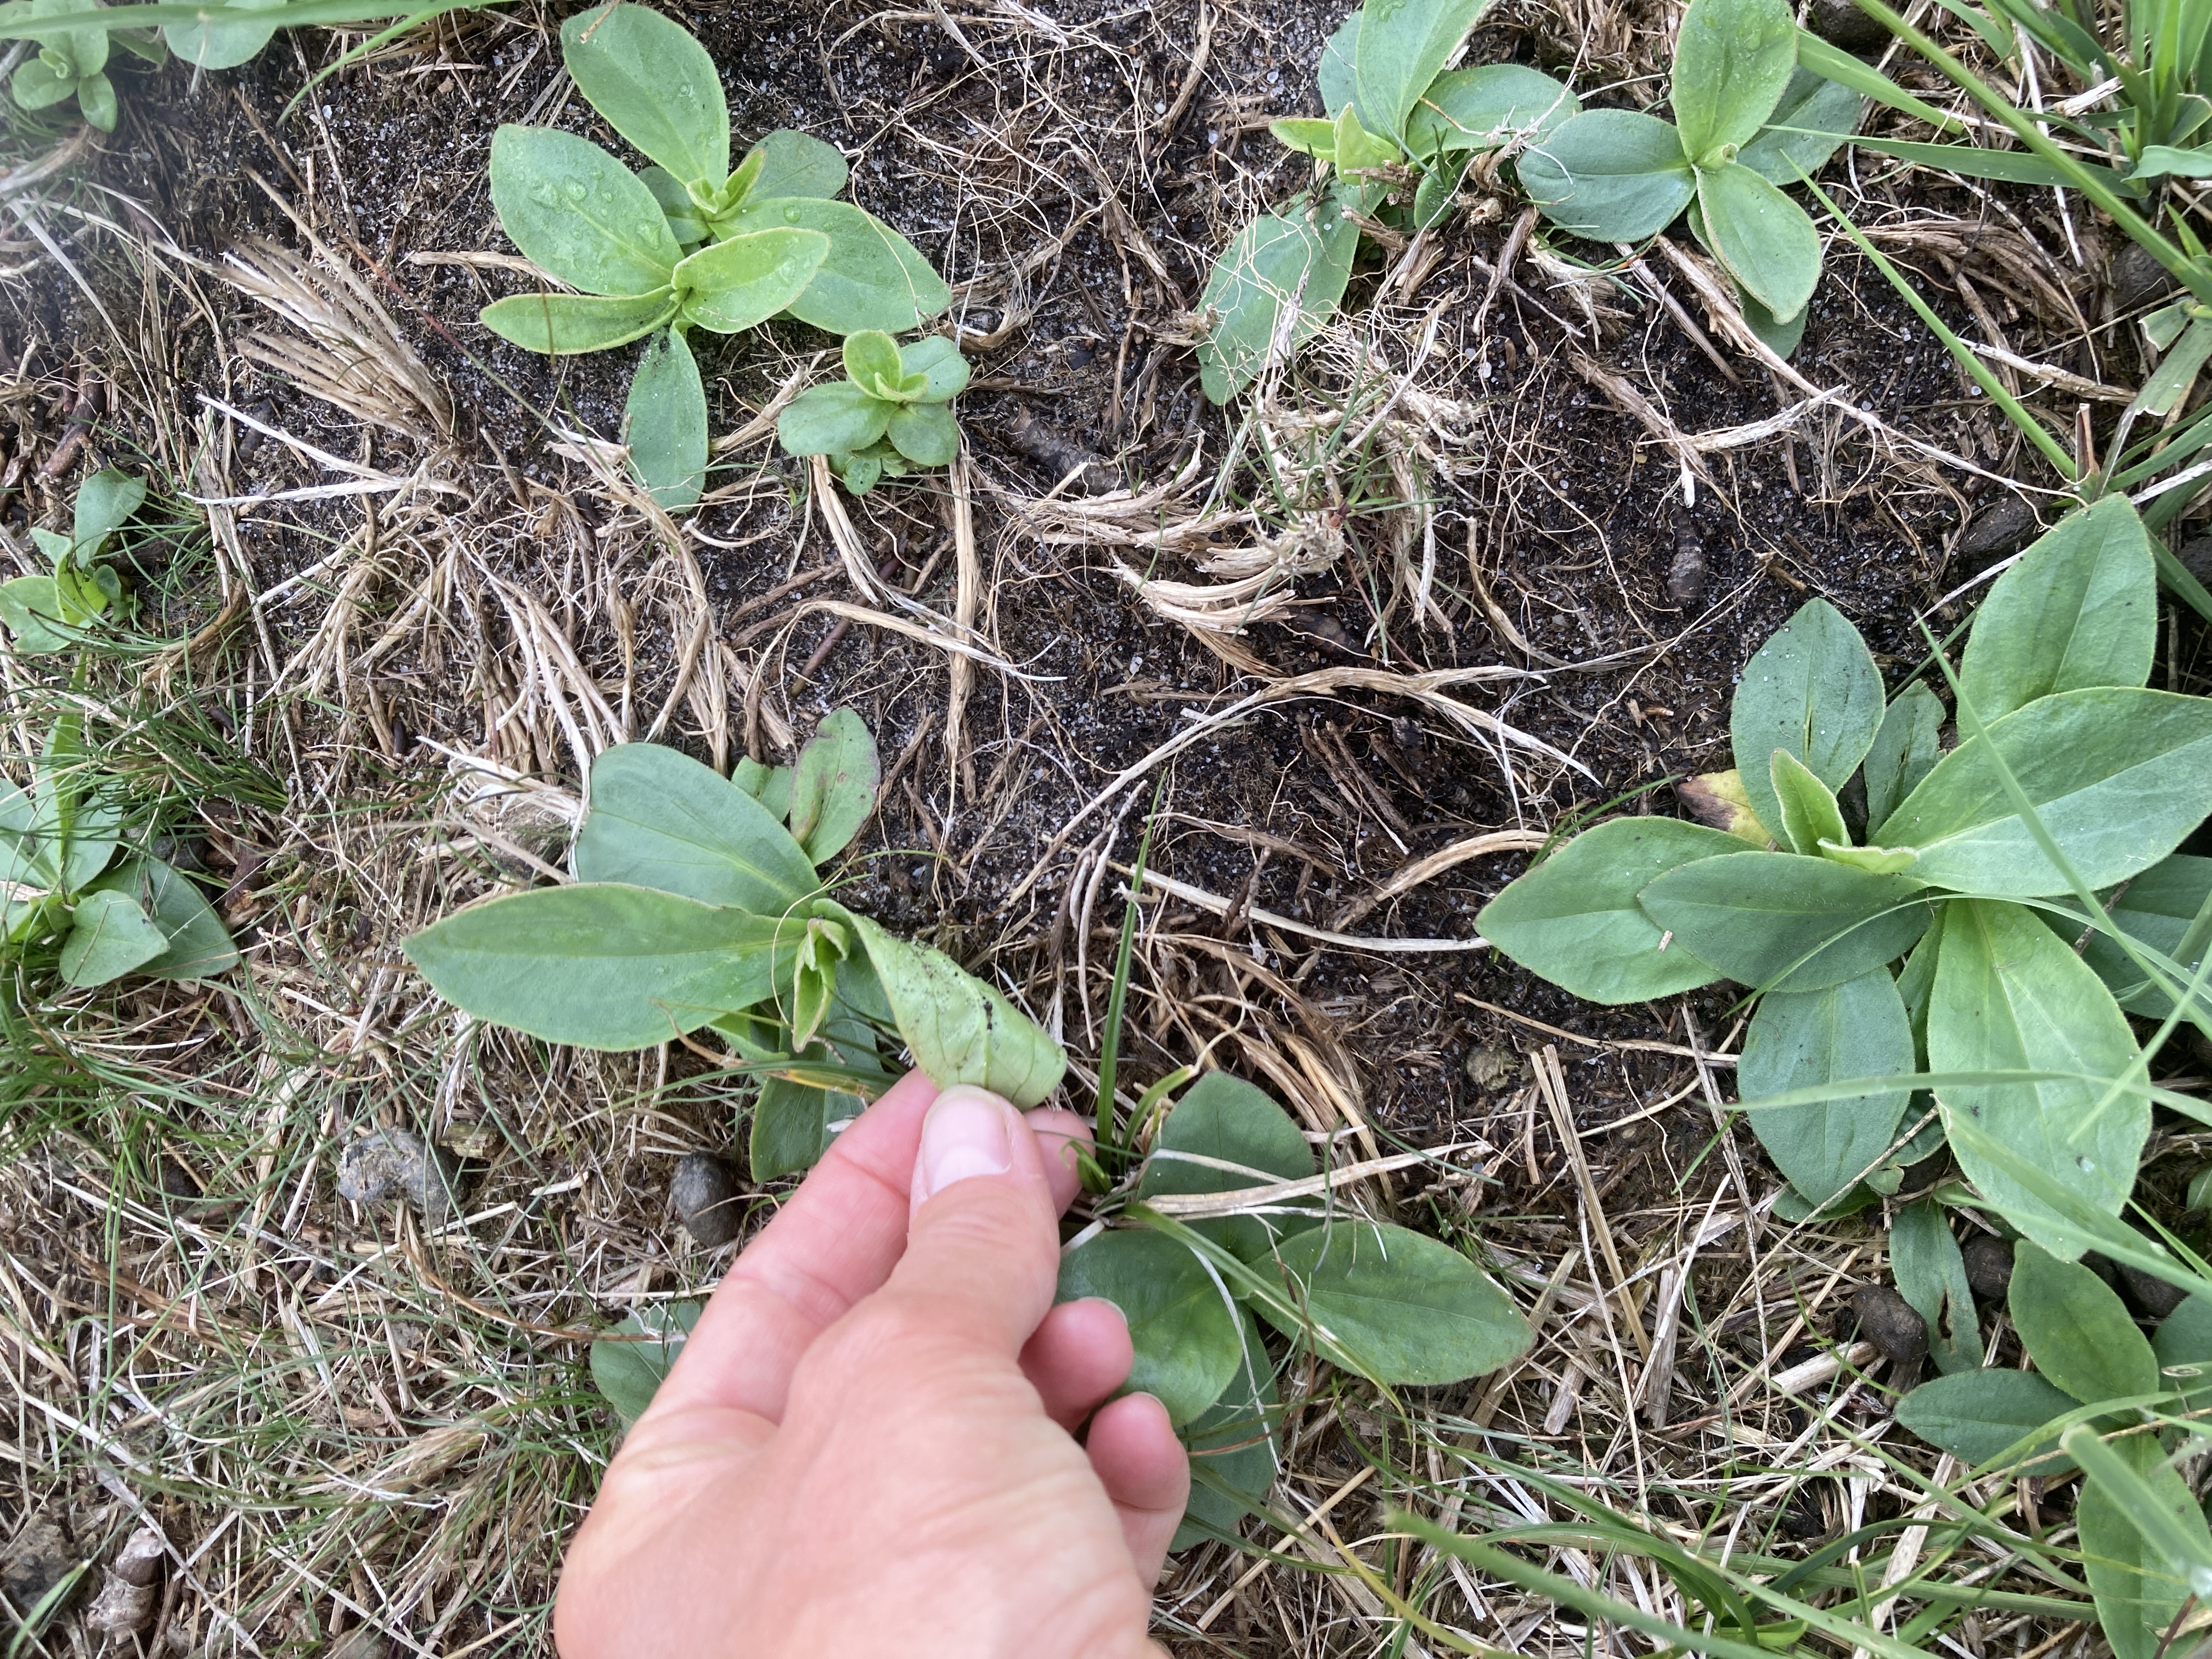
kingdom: Plantae
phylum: Tracheophyta
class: Magnoliopsida
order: Asterales
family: Asteraceae
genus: Arnica
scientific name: Arnica montana
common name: Guldblomme
